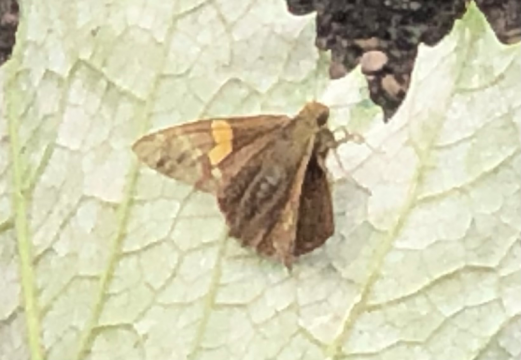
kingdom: Animalia
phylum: Arthropoda
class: Insecta
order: Lepidoptera
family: Hesperiidae
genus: Epargyreus
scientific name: Epargyreus clarus
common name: Silver-spotted Skipper
